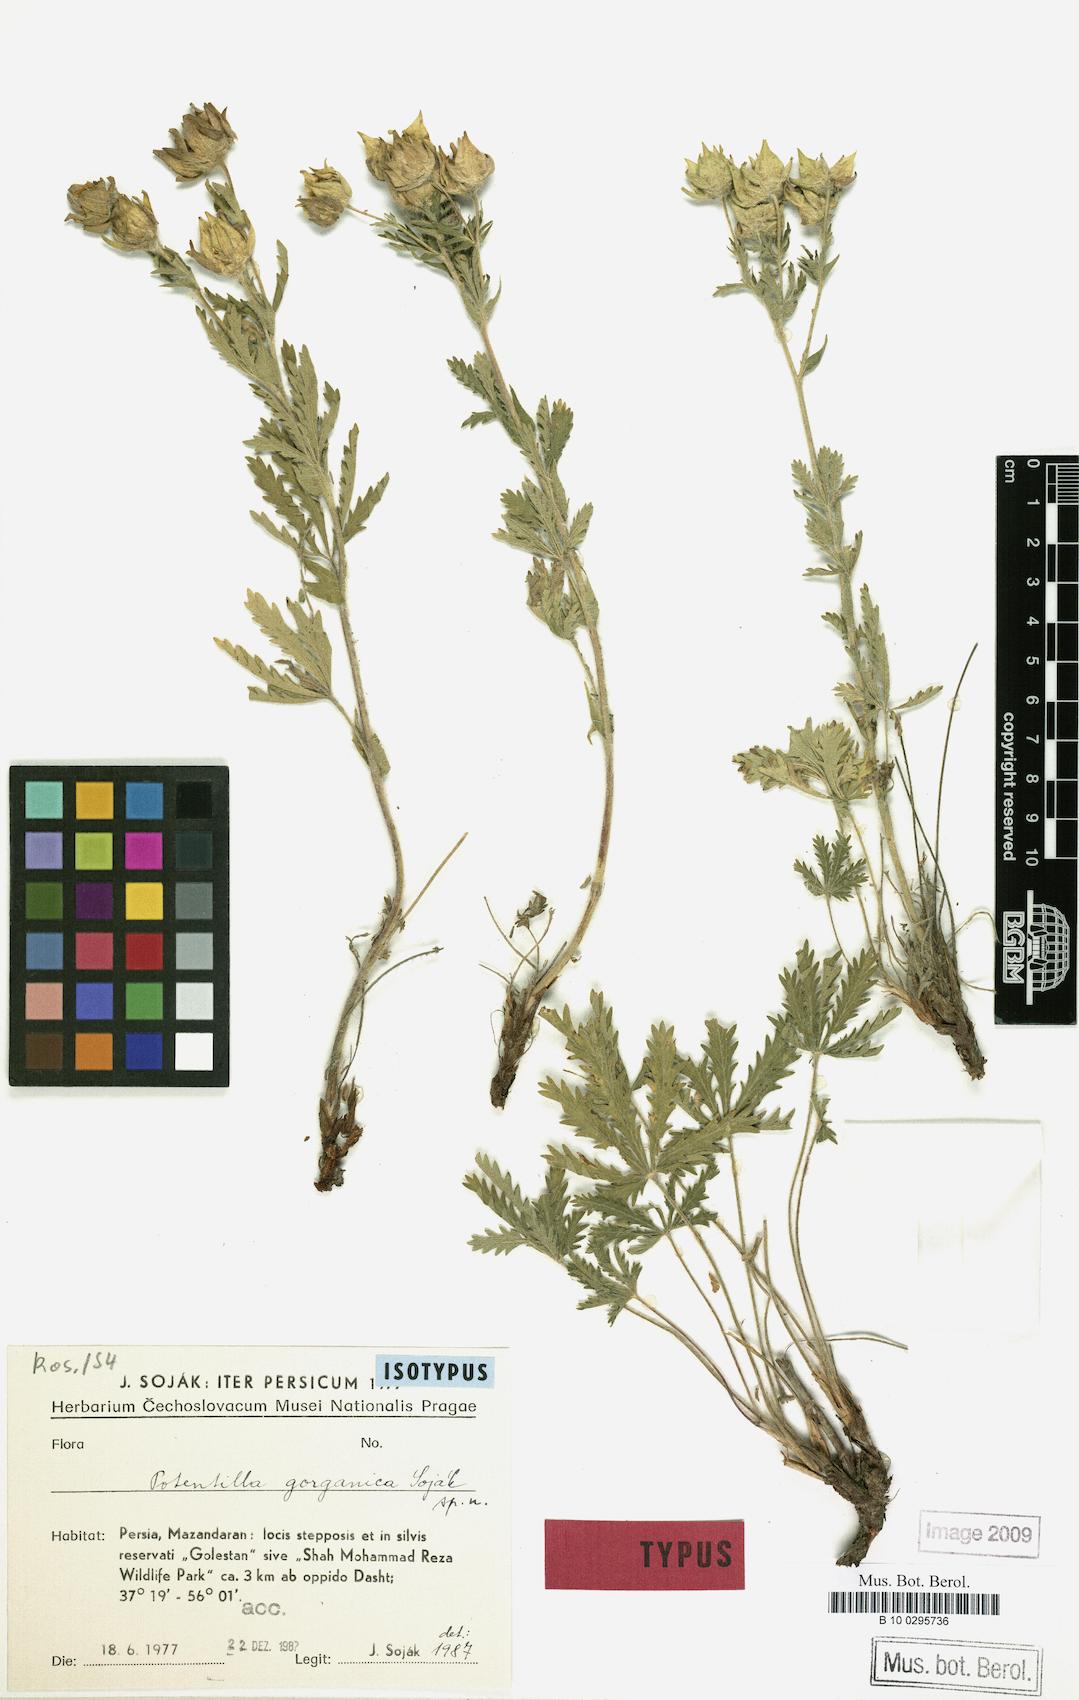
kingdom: Plantae
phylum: Tracheophyta
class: Magnoliopsida
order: Rosales
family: Rosaceae
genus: Potentilla
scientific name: Potentilla gorganica
